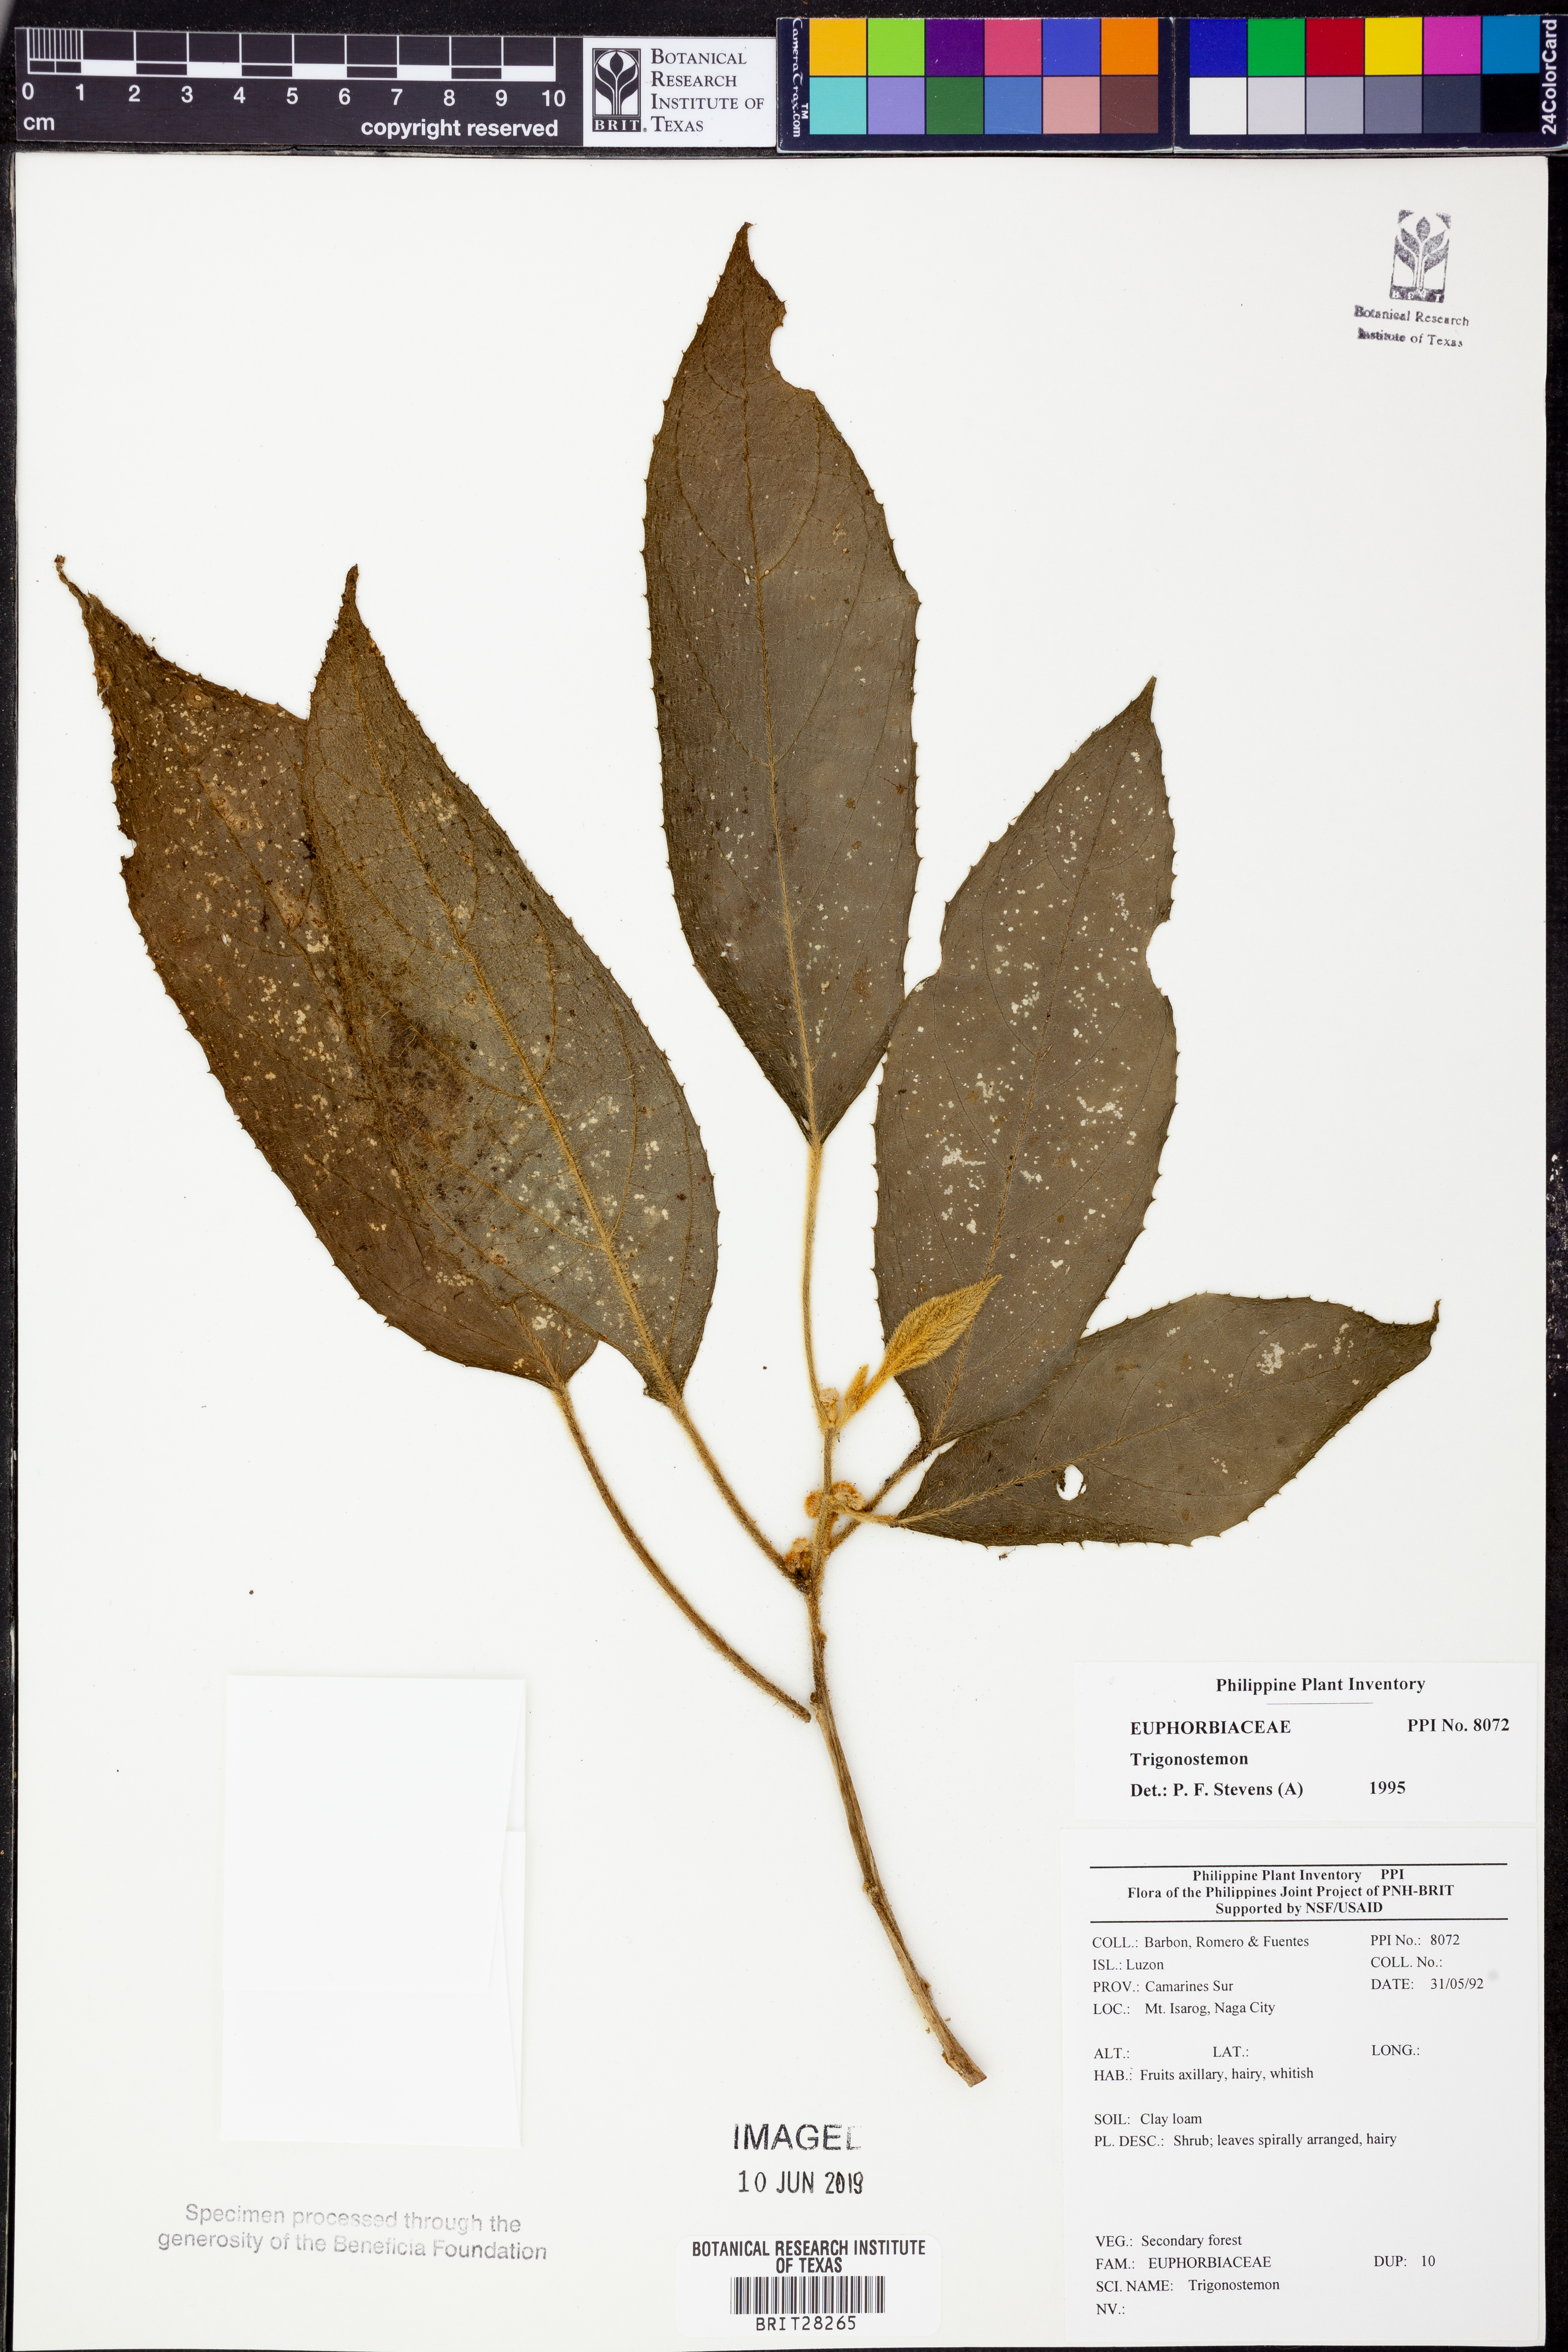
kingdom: Plantae
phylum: Tracheophyta
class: Magnoliopsida
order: Malpighiales
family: Euphorbiaceae
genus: Trigonostemon
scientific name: Trigonostemon
